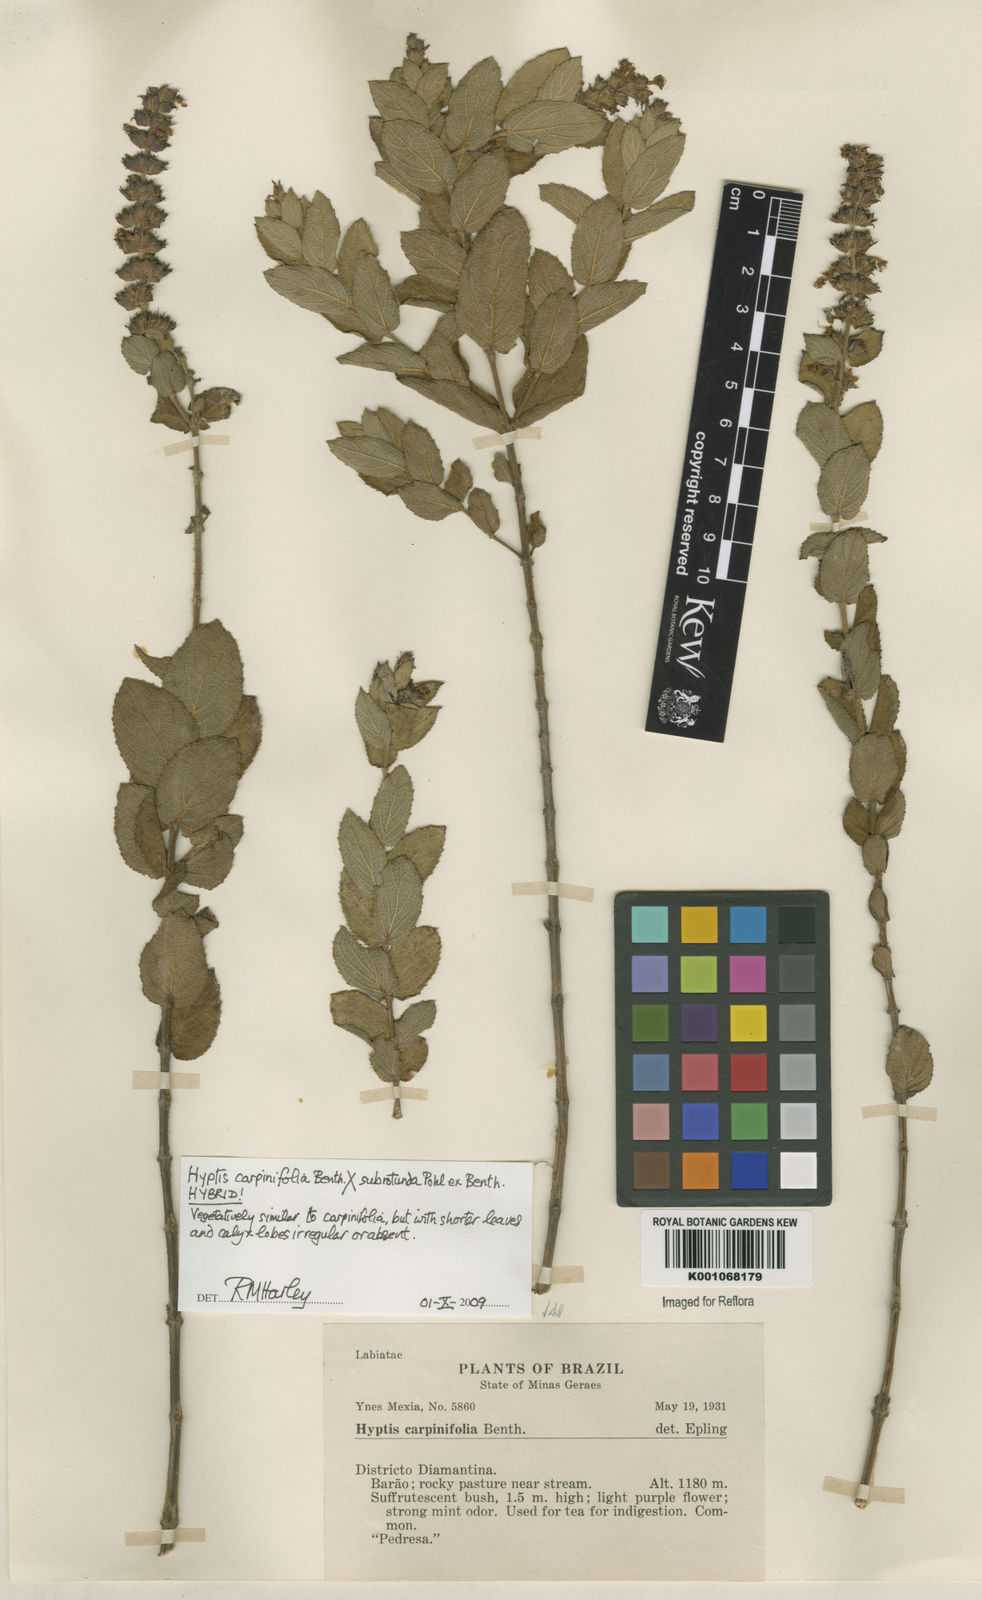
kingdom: Plantae
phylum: Tracheophyta
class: Magnoliopsida
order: Lamiales
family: Lamiaceae
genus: Cantinoa
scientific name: Cantinoa
